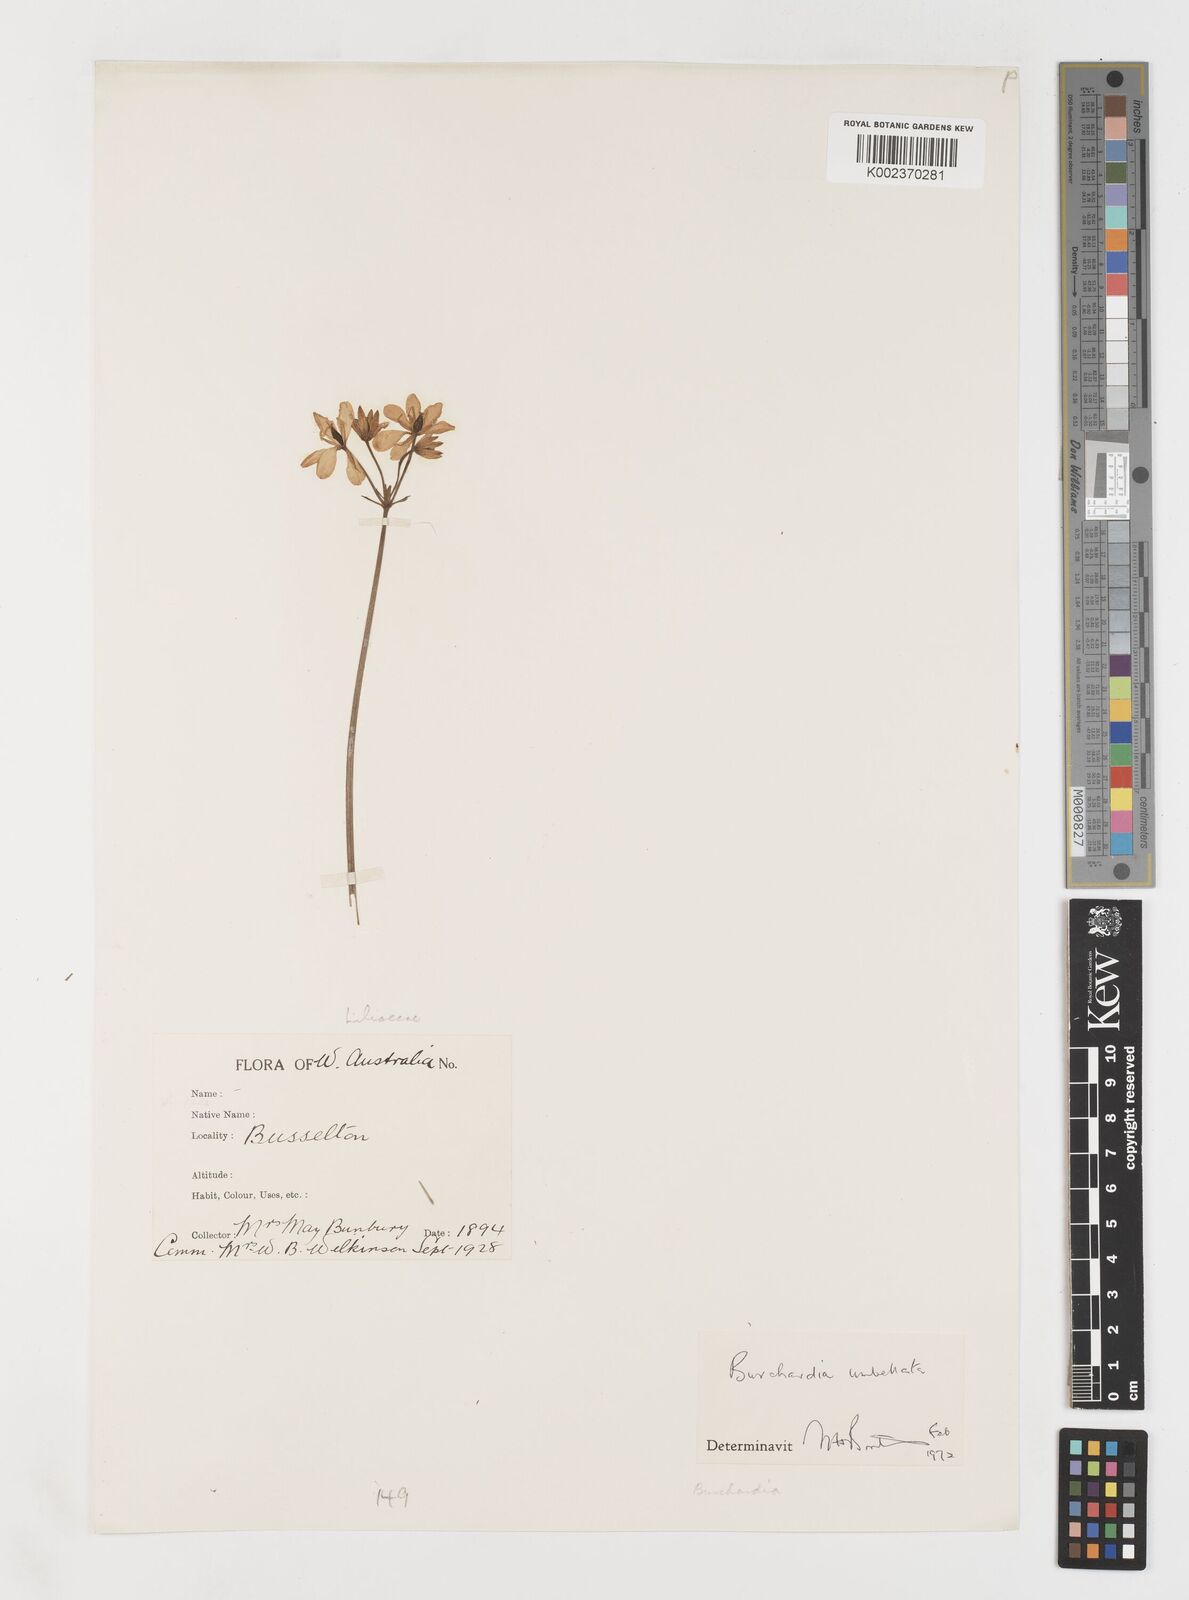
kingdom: Plantae
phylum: Tracheophyta
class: Liliopsida
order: Liliales
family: Colchicaceae
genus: Burchardia
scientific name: Burchardia umbellata
